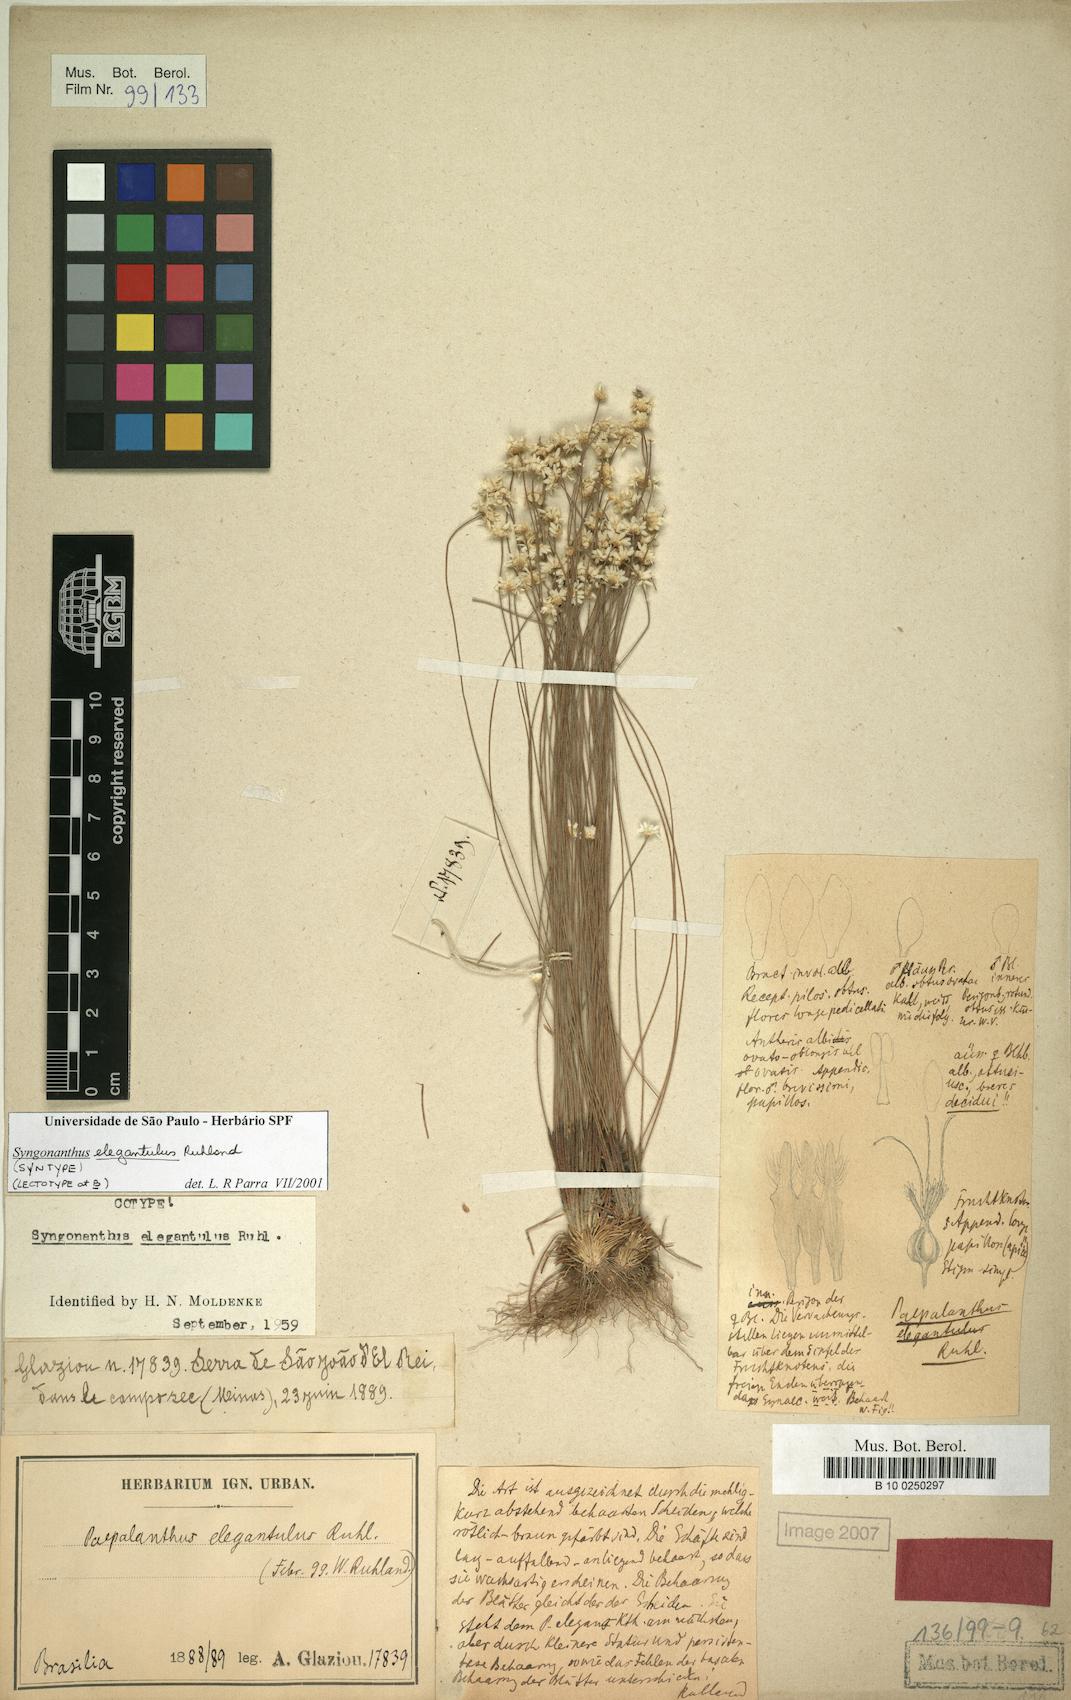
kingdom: Plantae
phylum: Tracheophyta
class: Liliopsida
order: Poales
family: Eriocaulaceae
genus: Comanthera
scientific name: Comanthera elegantula
